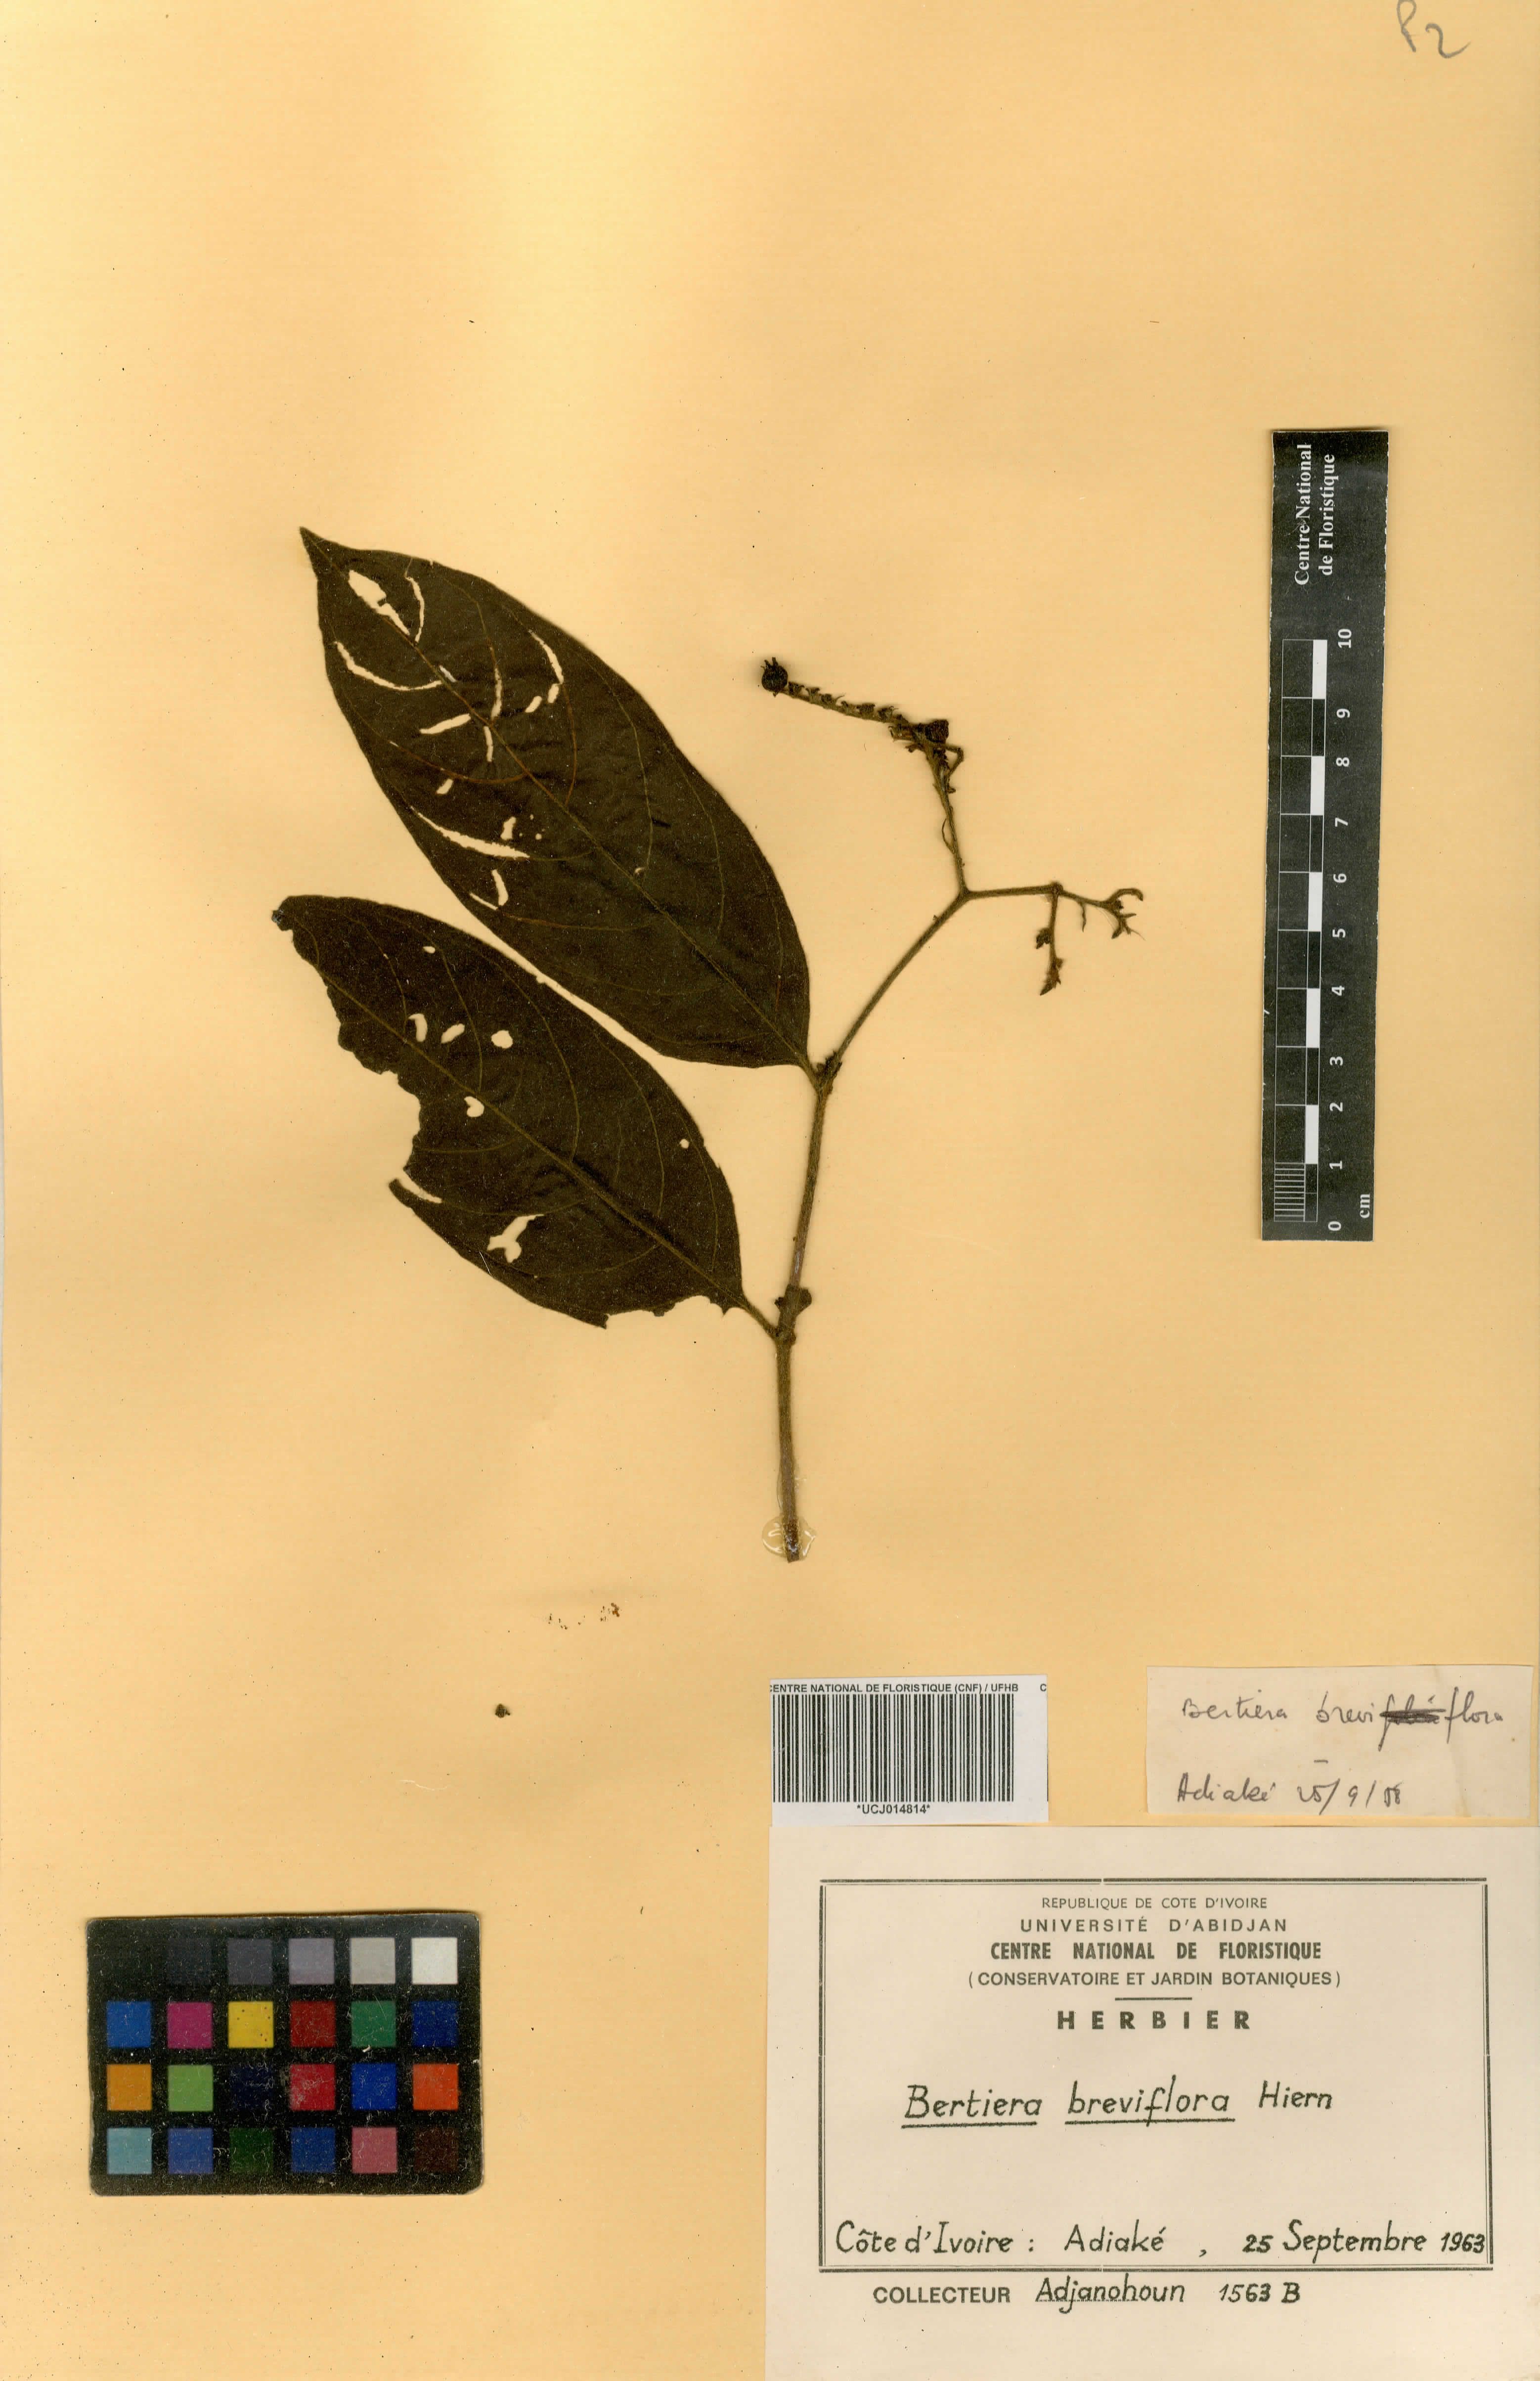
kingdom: Plantae
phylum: Tracheophyta
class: Magnoliopsida
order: Gentianales
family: Rubiaceae
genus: Bertiera
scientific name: Bertiera breviflora
